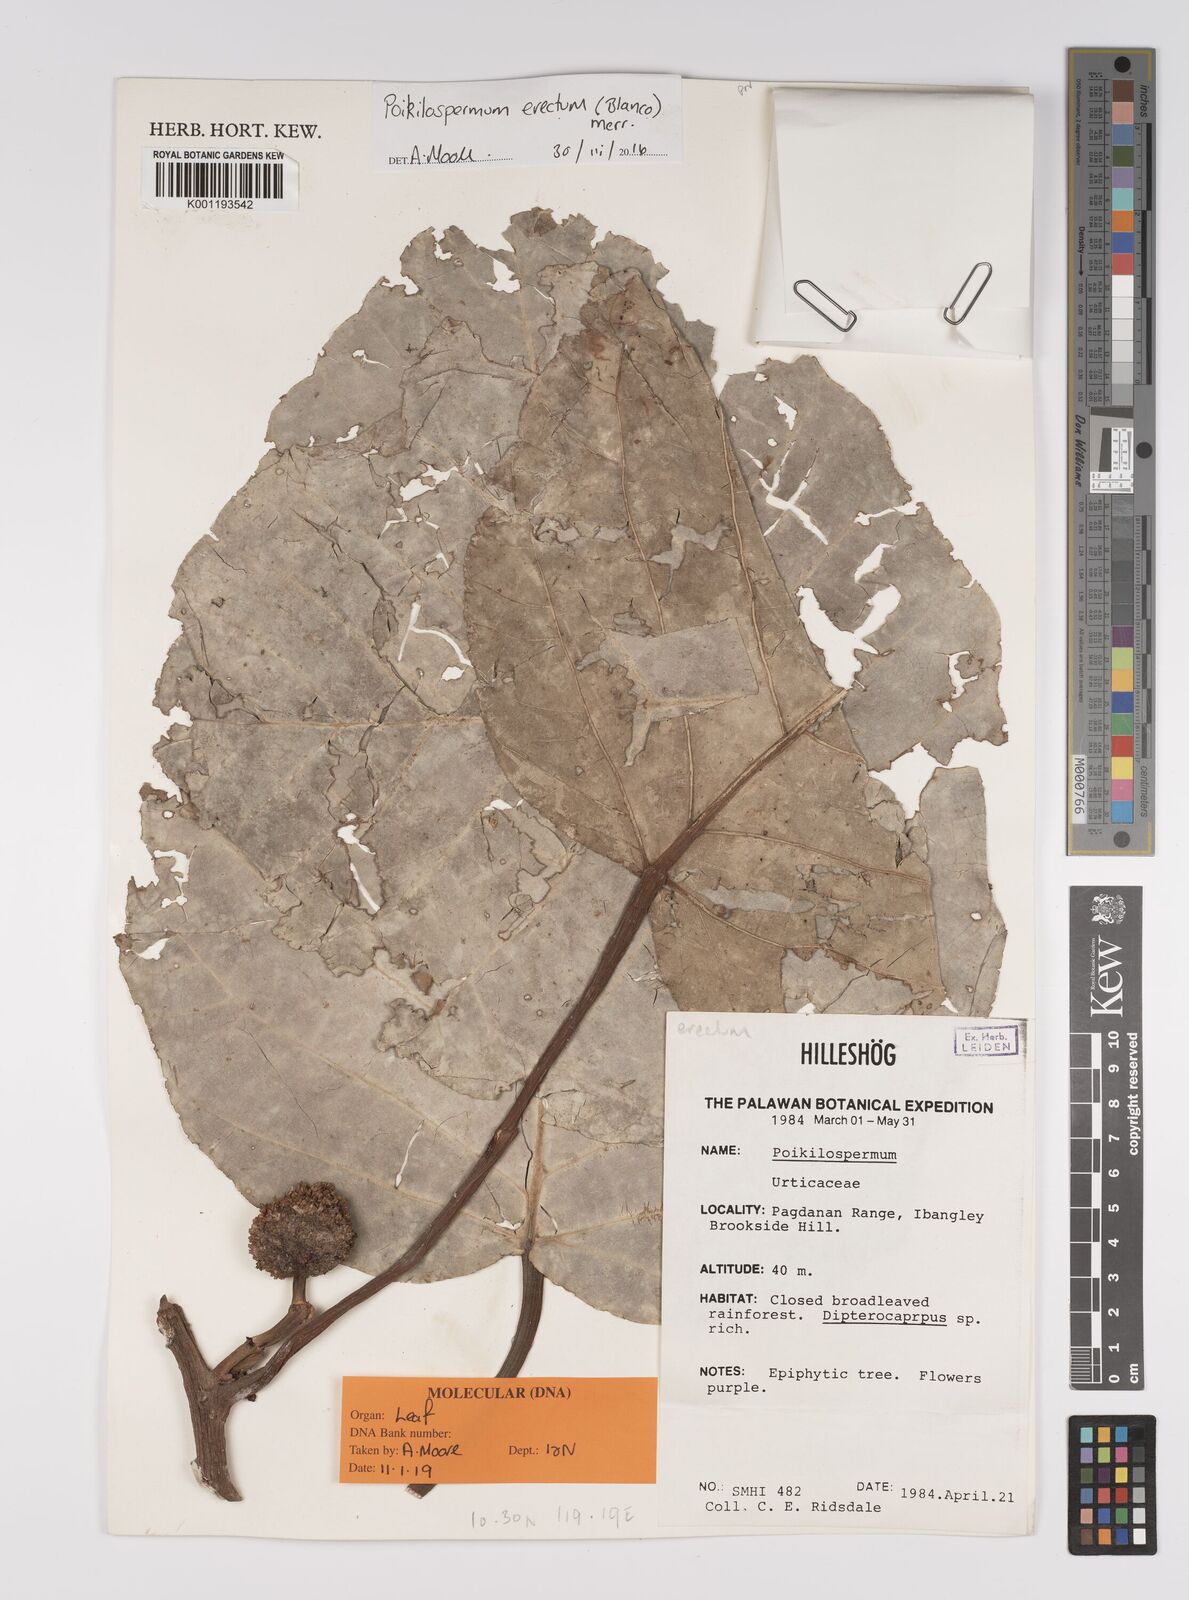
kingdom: Plantae
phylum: Tracheophyta
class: Magnoliopsida
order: Rosales
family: Urticaceae
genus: Poikilospermum
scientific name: Poikilospermum erectum
